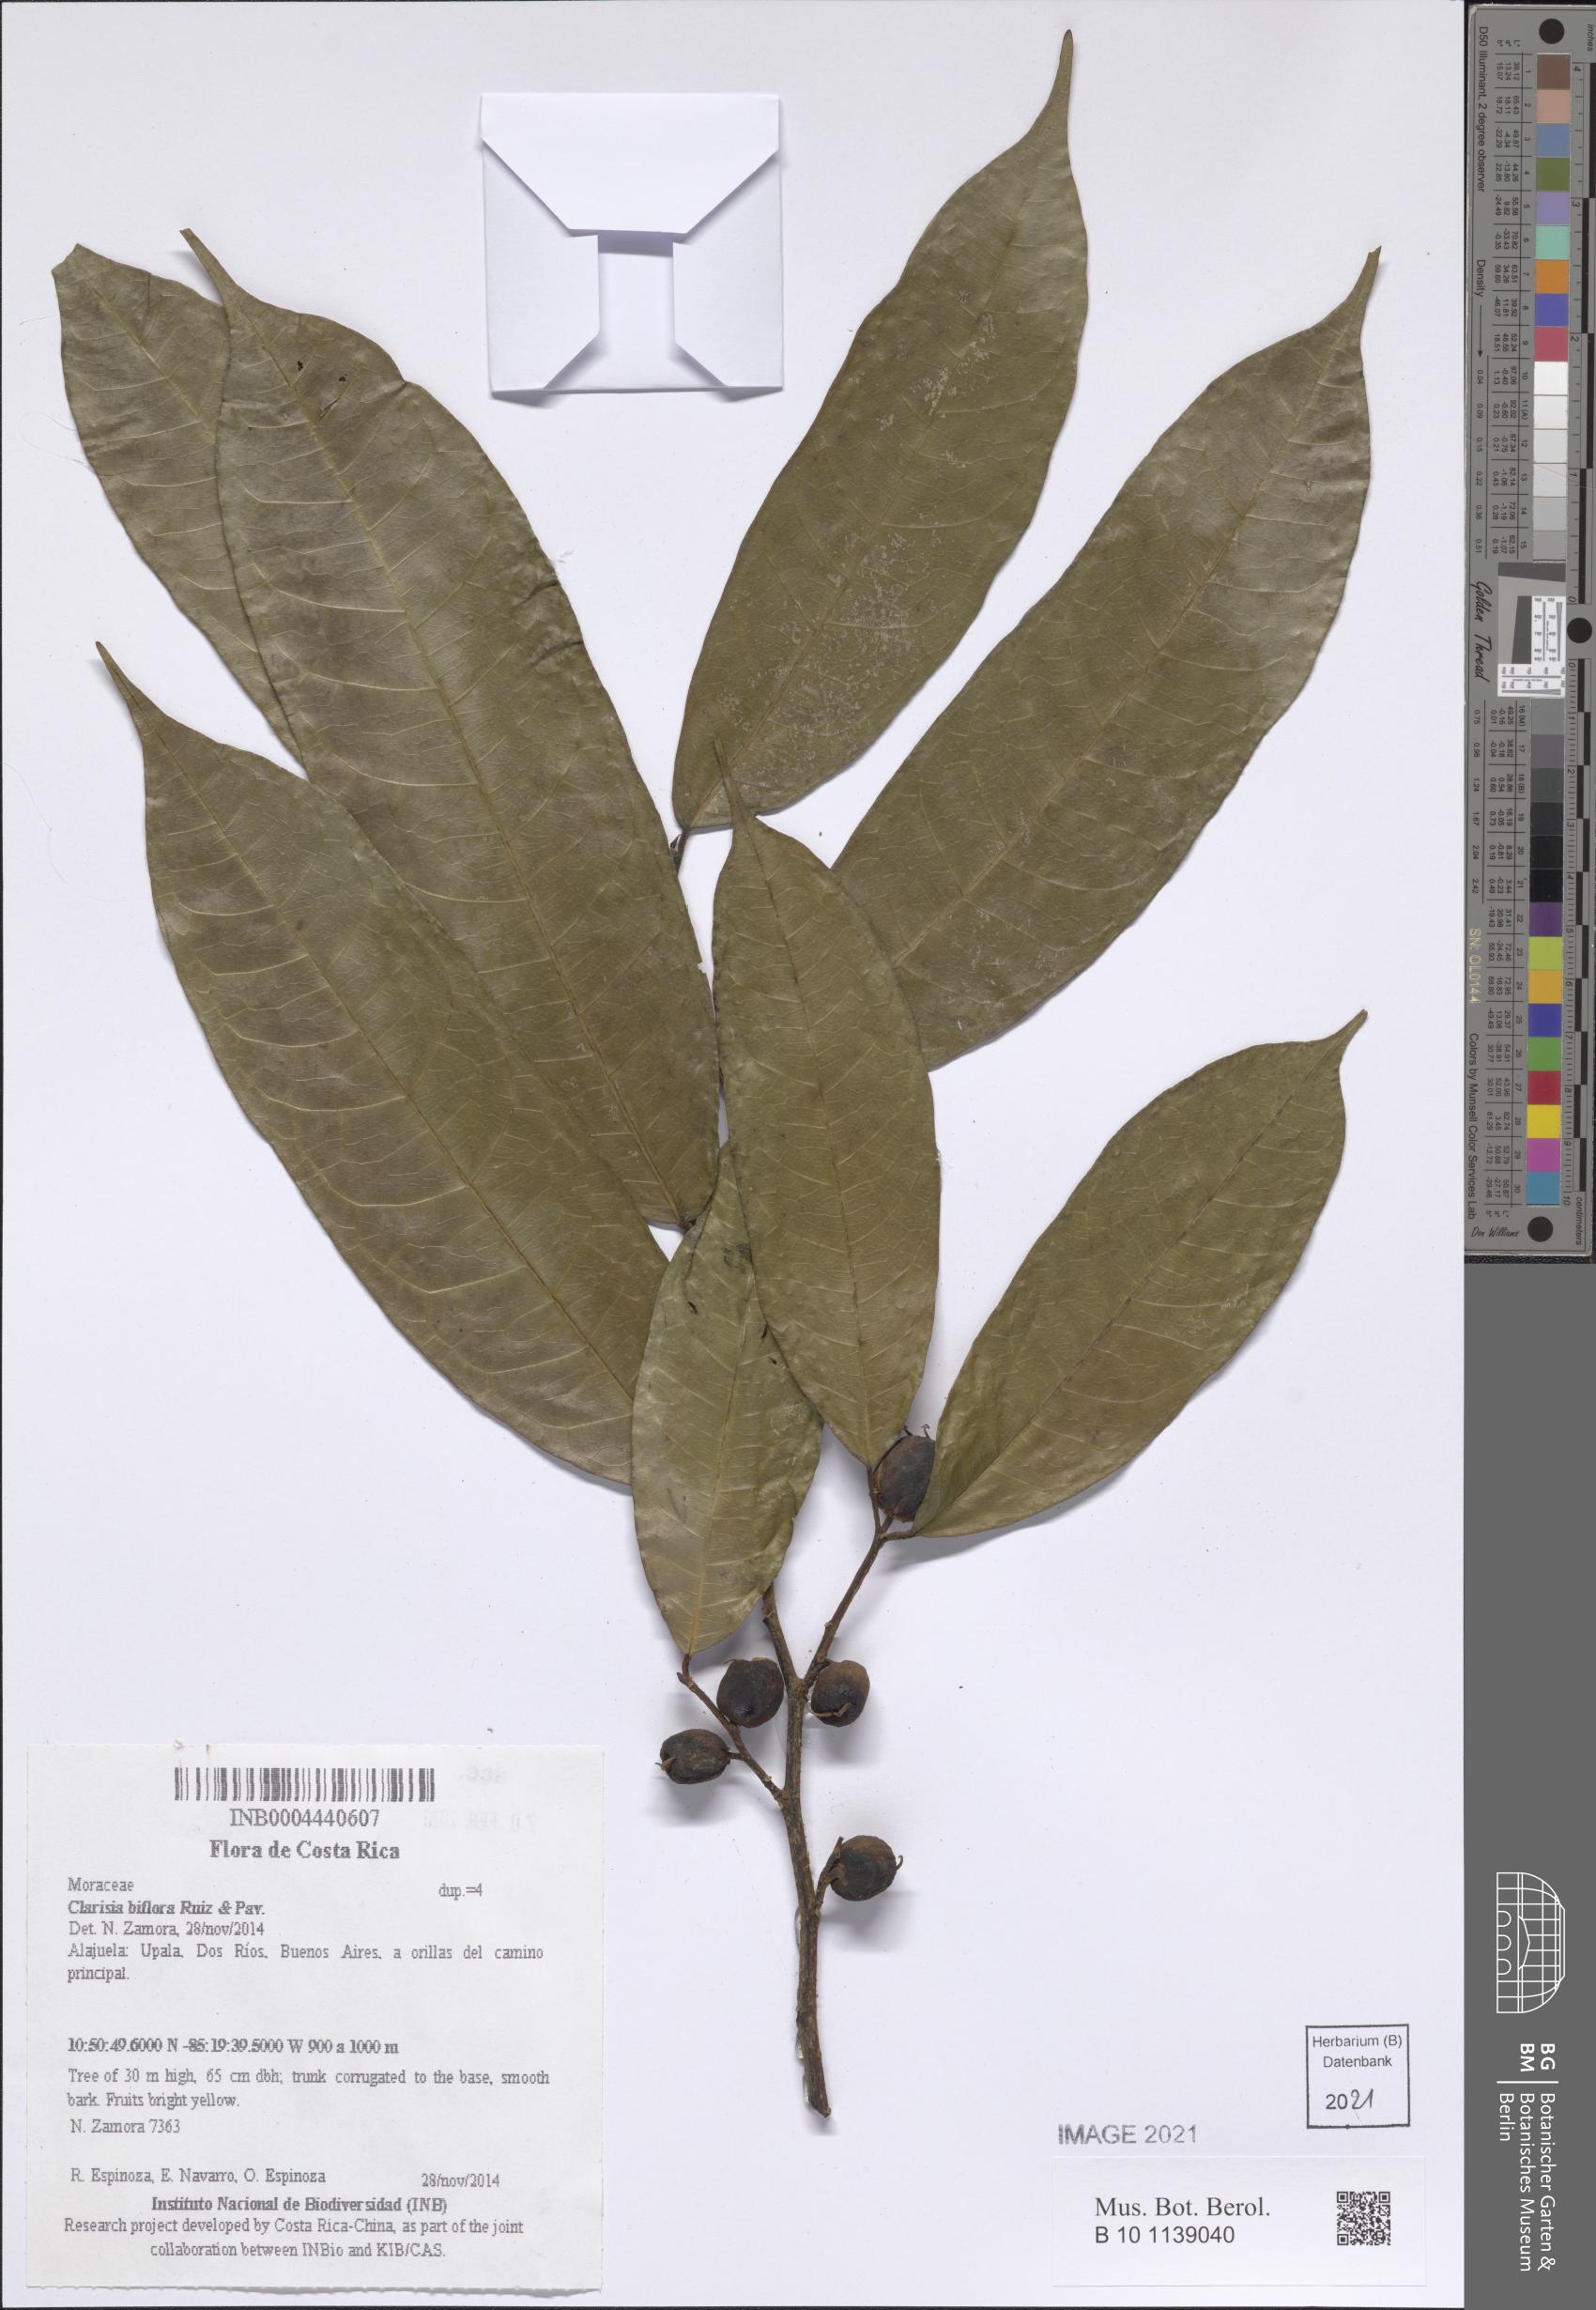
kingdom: Plantae
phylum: Tracheophyta
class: Magnoliopsida
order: Rosales
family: Moraceae
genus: Clarisia
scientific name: Clarisia biflora
